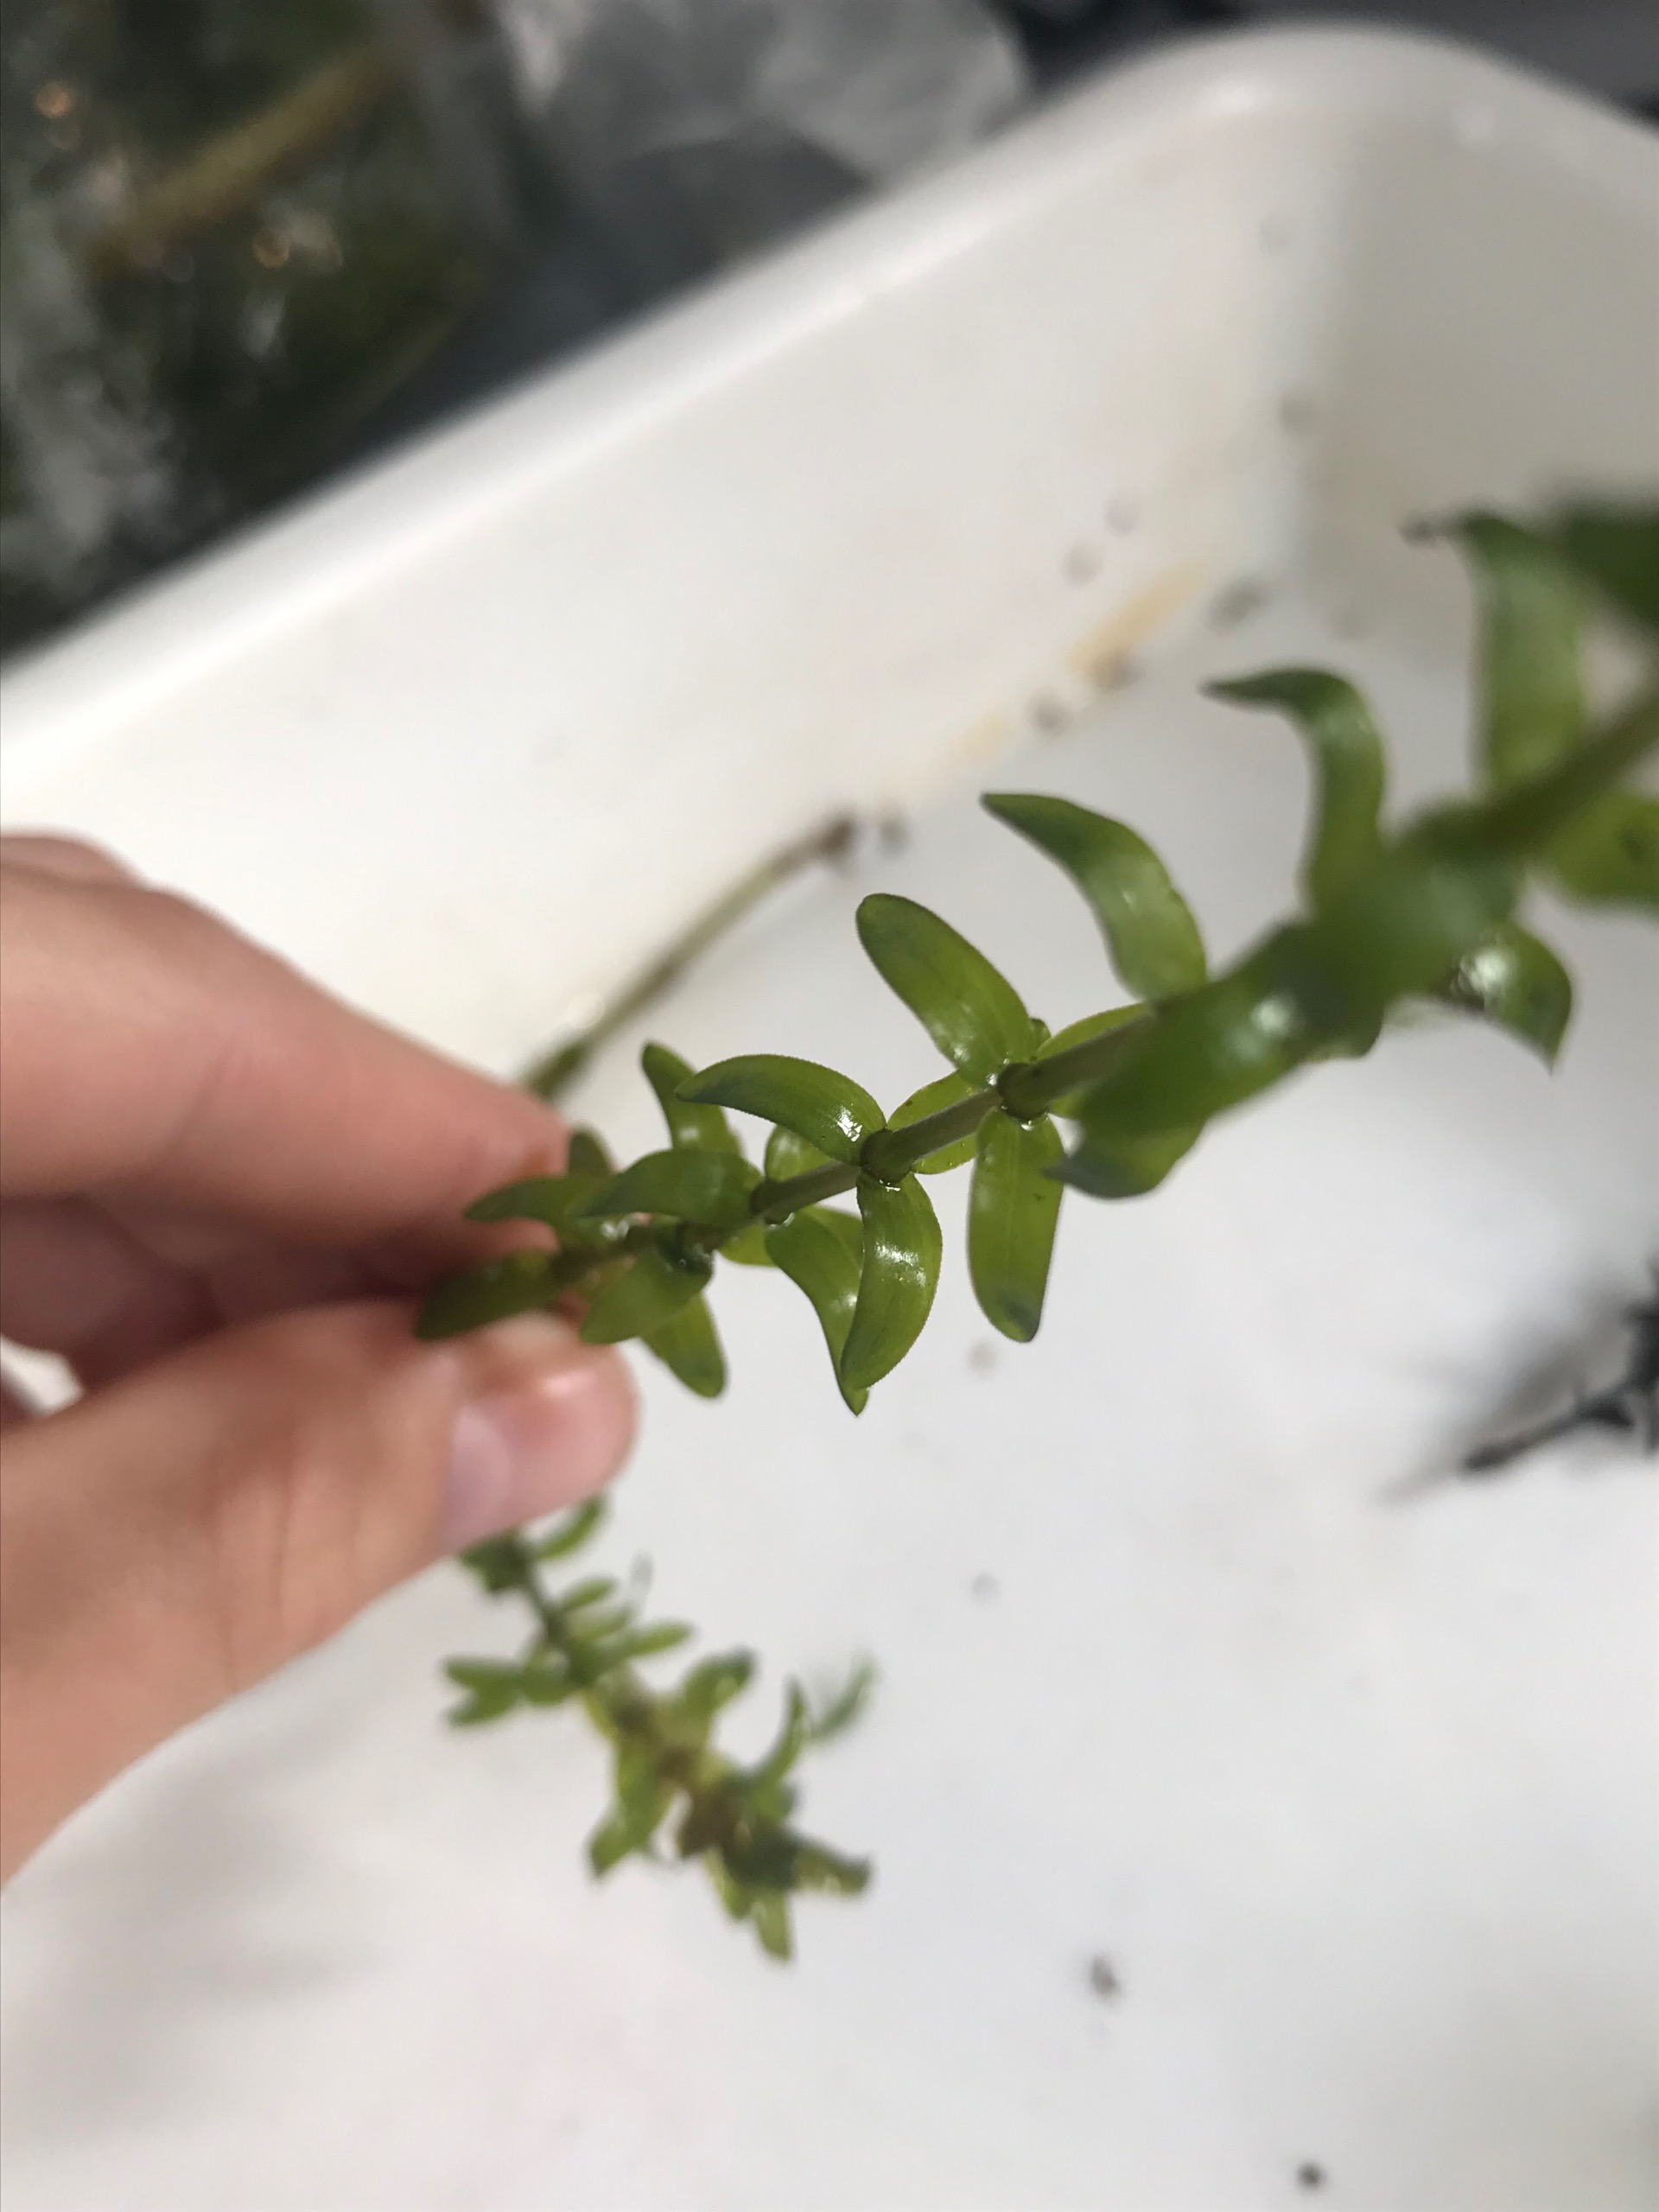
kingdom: Plantae
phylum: Tracheophyta
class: Liliopsida
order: Alismatales
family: Hydrocharitaceae
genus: Elodea
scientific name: Elodea canadensis
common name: Vandpest
